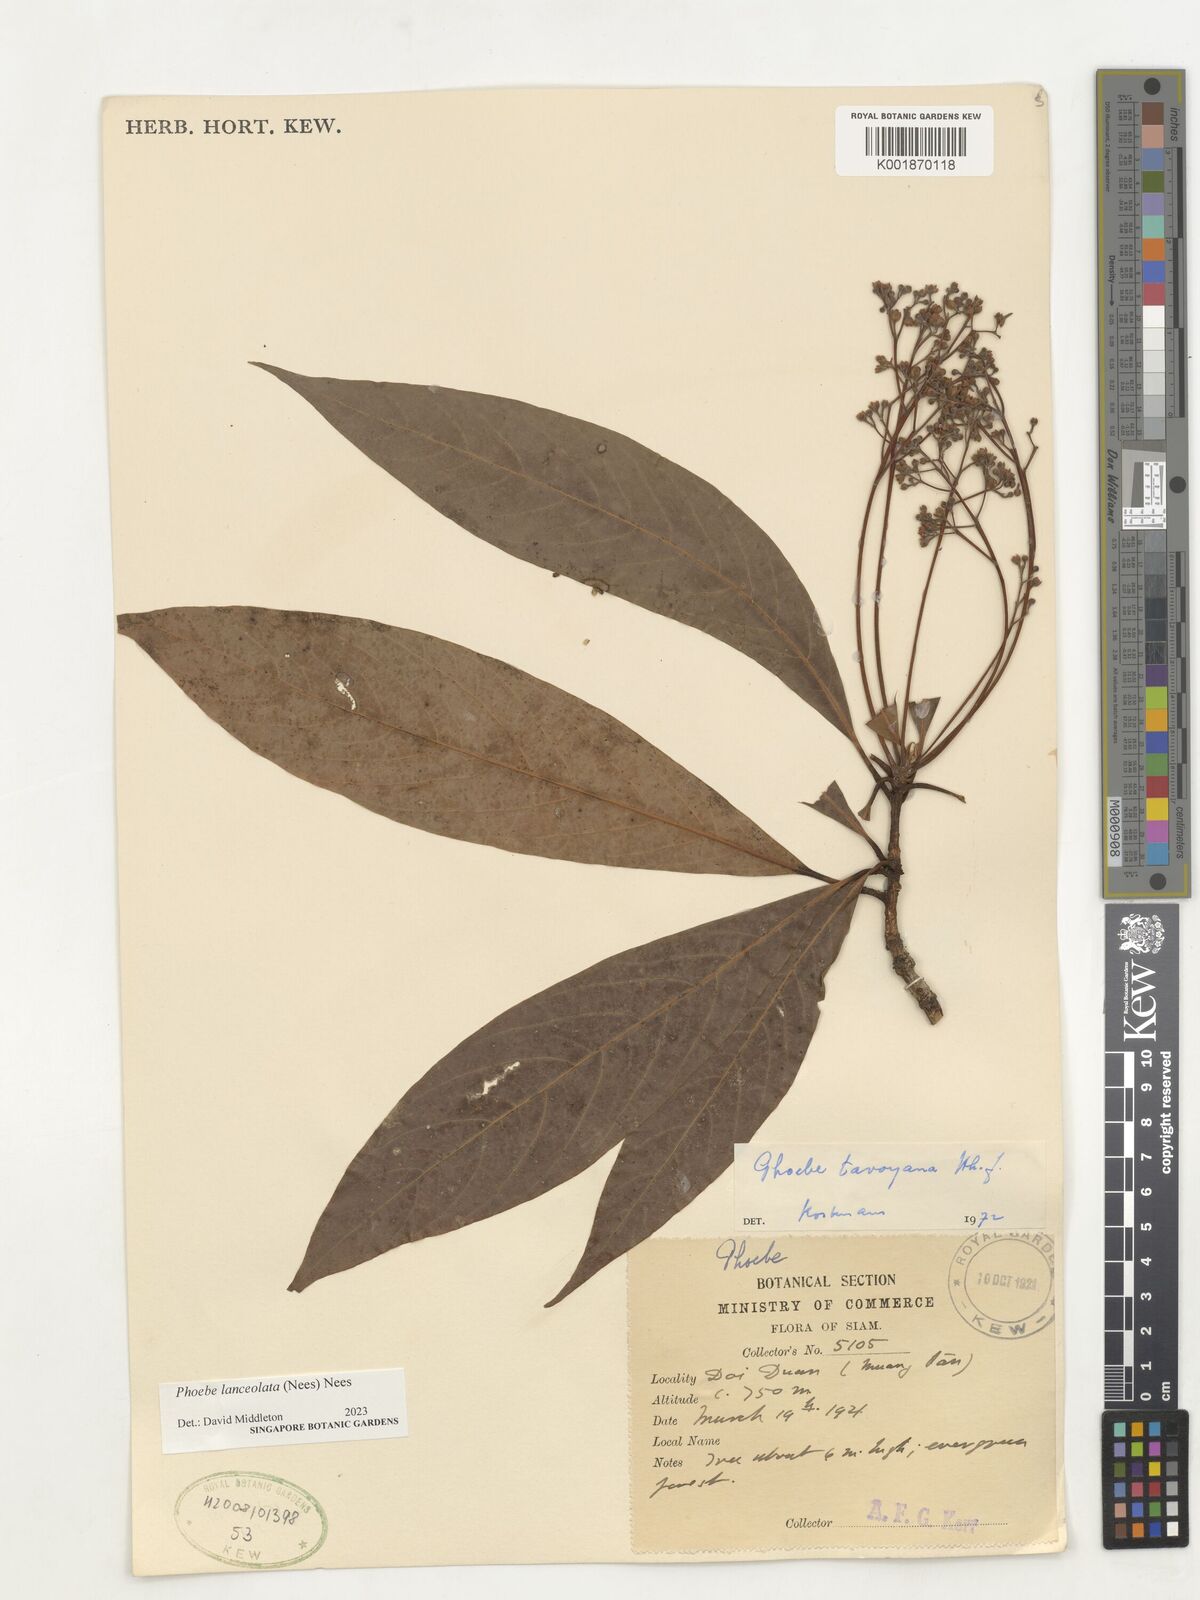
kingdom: Plantae
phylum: Tracheophyta
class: Magnoliopsida
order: Laurales
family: Lauraceae
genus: Phoebe
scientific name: Phoebe lanceolata
